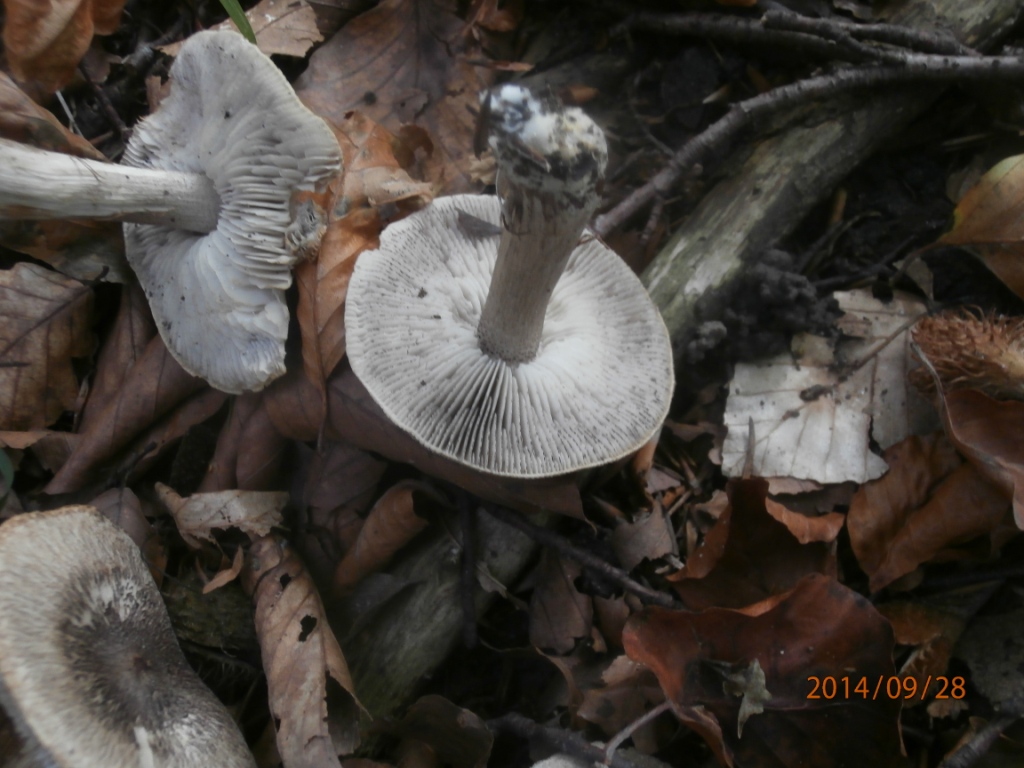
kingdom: Fungi
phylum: Basidiomycota
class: Agaricomycetes
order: Agaricales
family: Tricholomataceae
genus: Tricholoma
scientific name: Tricholoma atrosquamosum
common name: sortskællet ridderhat
